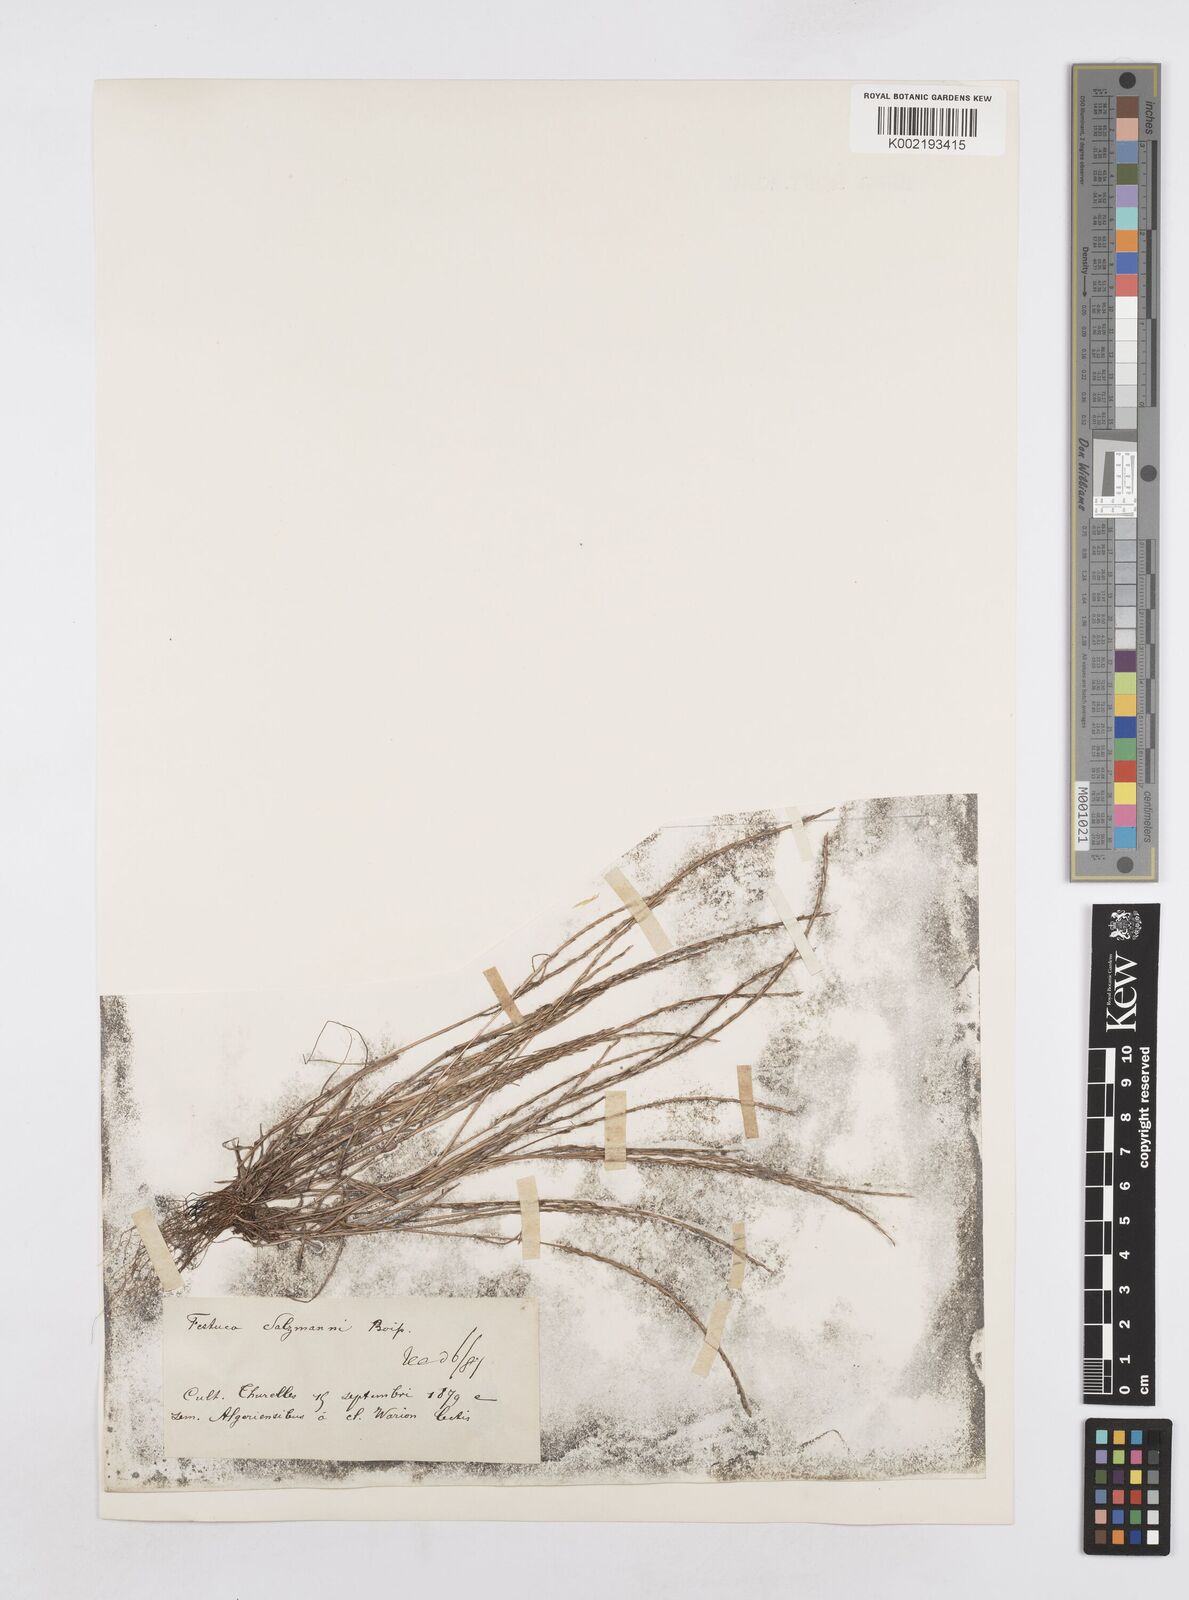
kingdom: Plantae
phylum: Tracheophyta
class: Liliopsida
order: Poales
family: Poaceae
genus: Festuca
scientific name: Festuca salzmannii
